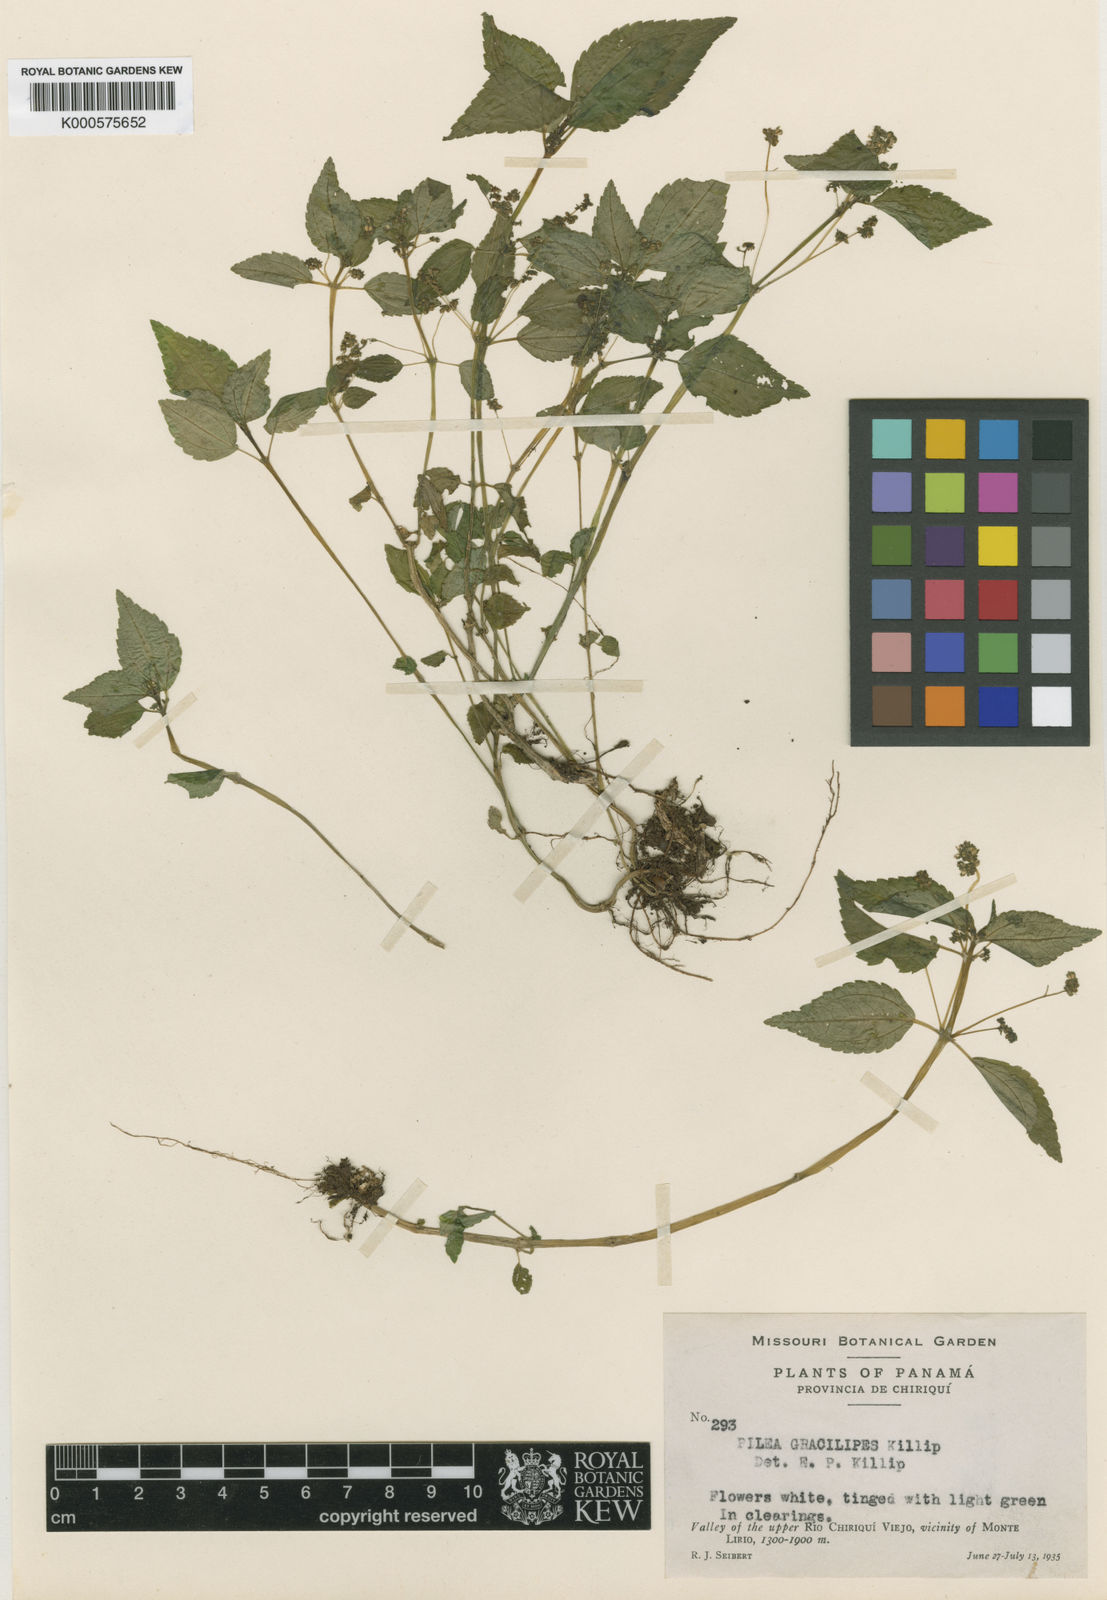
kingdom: Plantae
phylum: Tracheophyta
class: Magnoliopsida
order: Rosales
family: Urticaceae
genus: Pilea
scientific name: Pilea vulcanica
